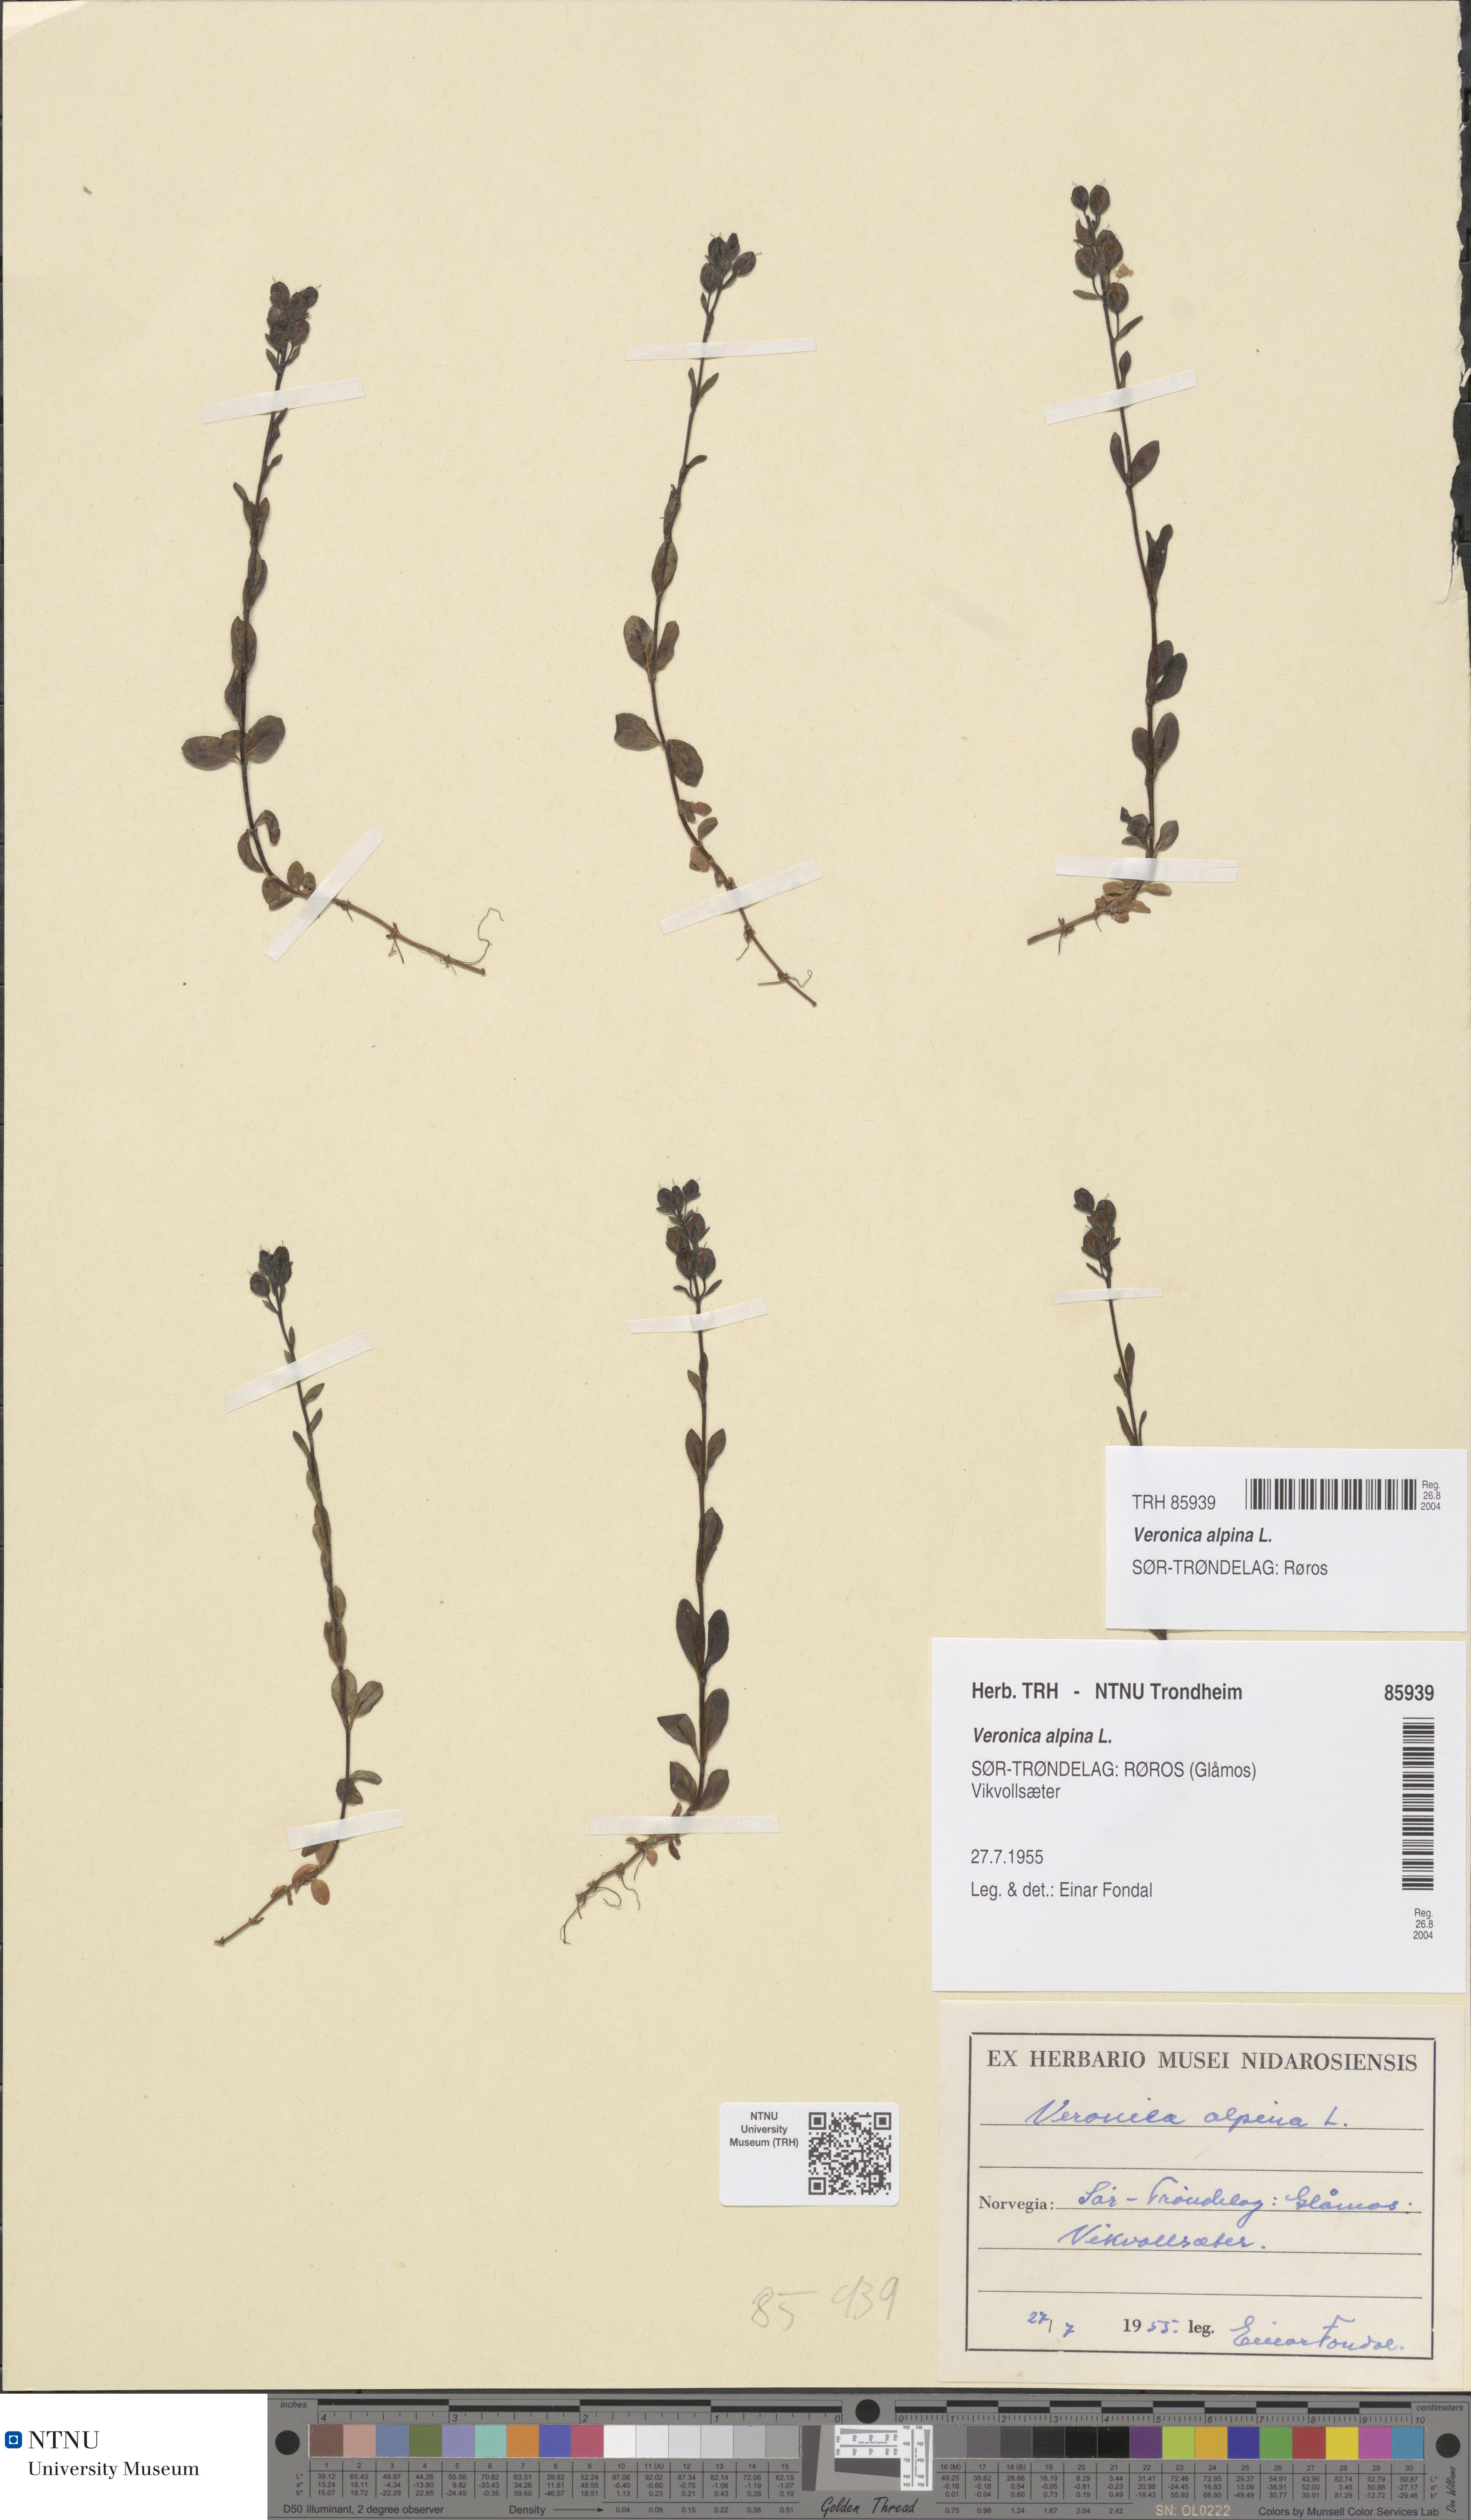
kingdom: Plantae
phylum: Tracheophyta
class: Magnoliopsida
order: Lamiales
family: Plantaginaceae
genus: Veronica
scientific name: Veronica alpina
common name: Alpine speedwell
